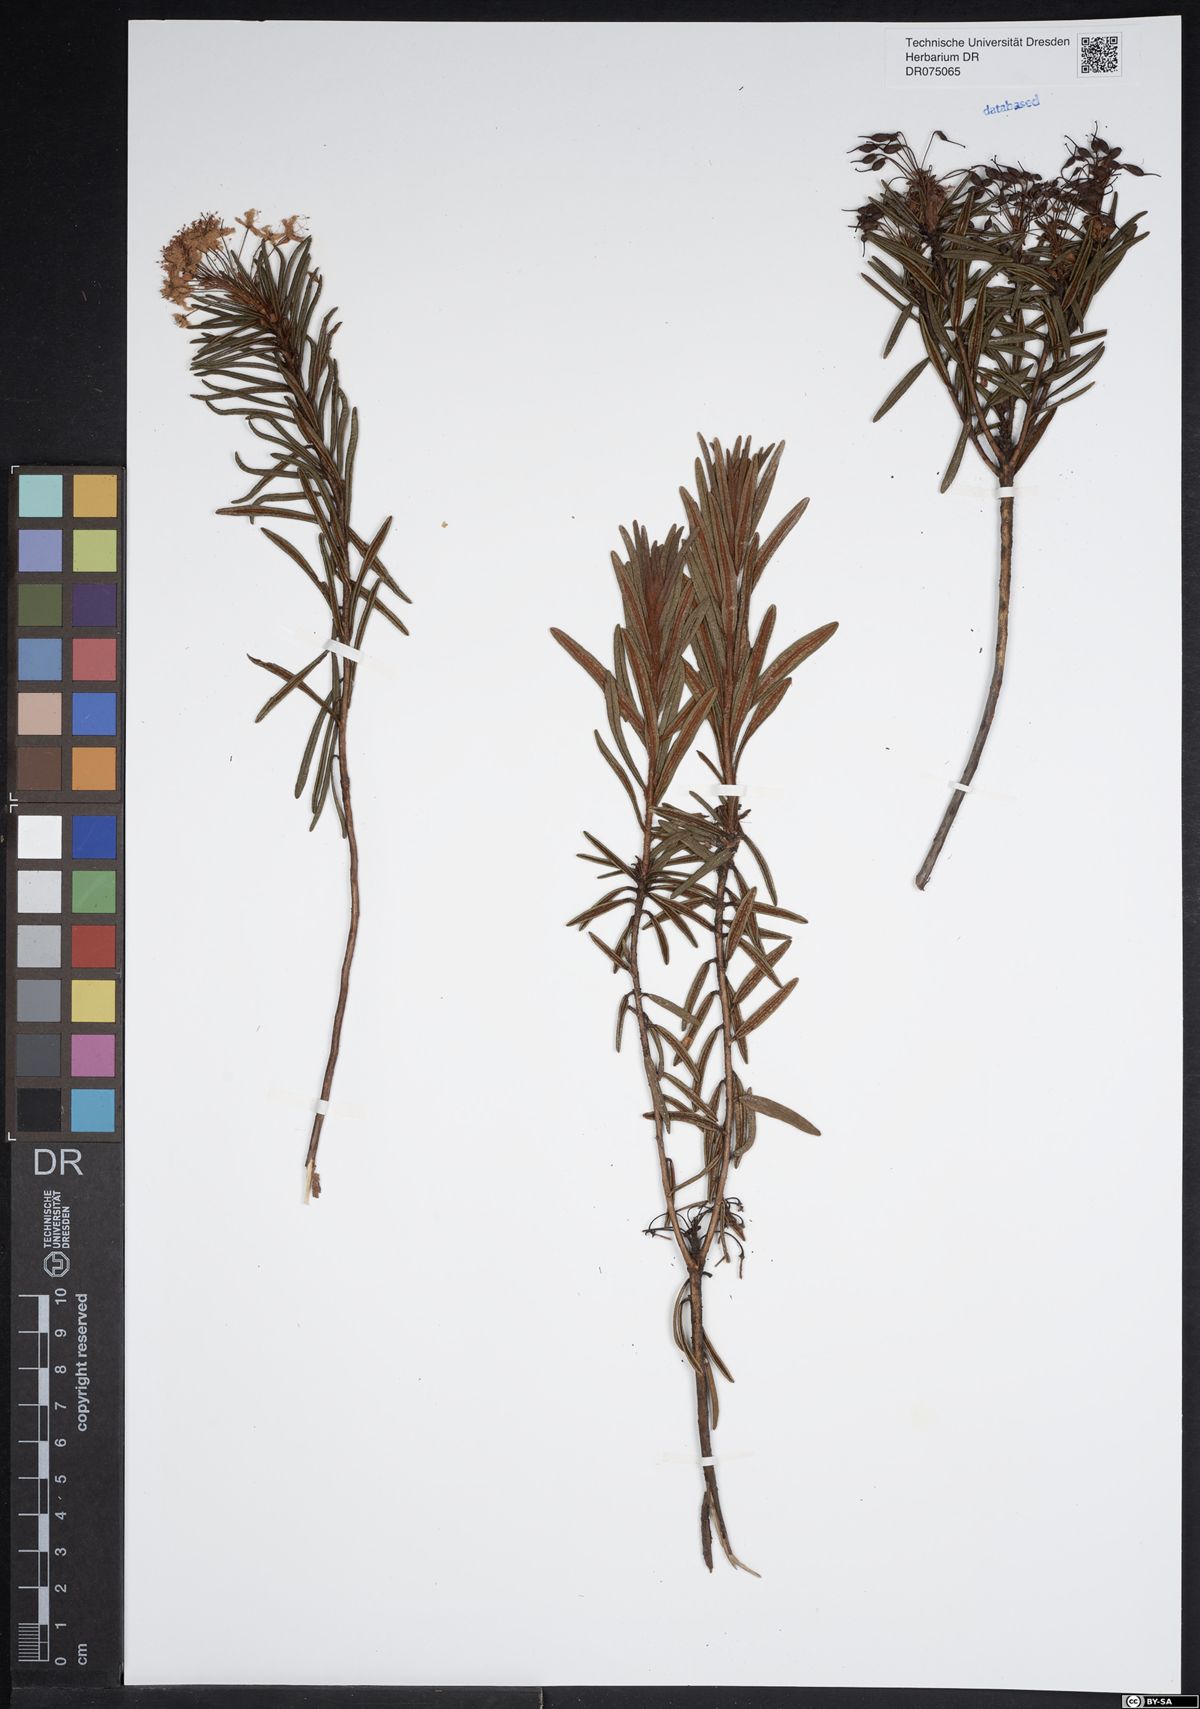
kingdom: Plantae
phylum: Tracheophyta
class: Magnoliopsida
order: Ericales
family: Ericaceae
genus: Rhododendron
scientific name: Rhododendron tomentosum
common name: Marsh labrador tea
